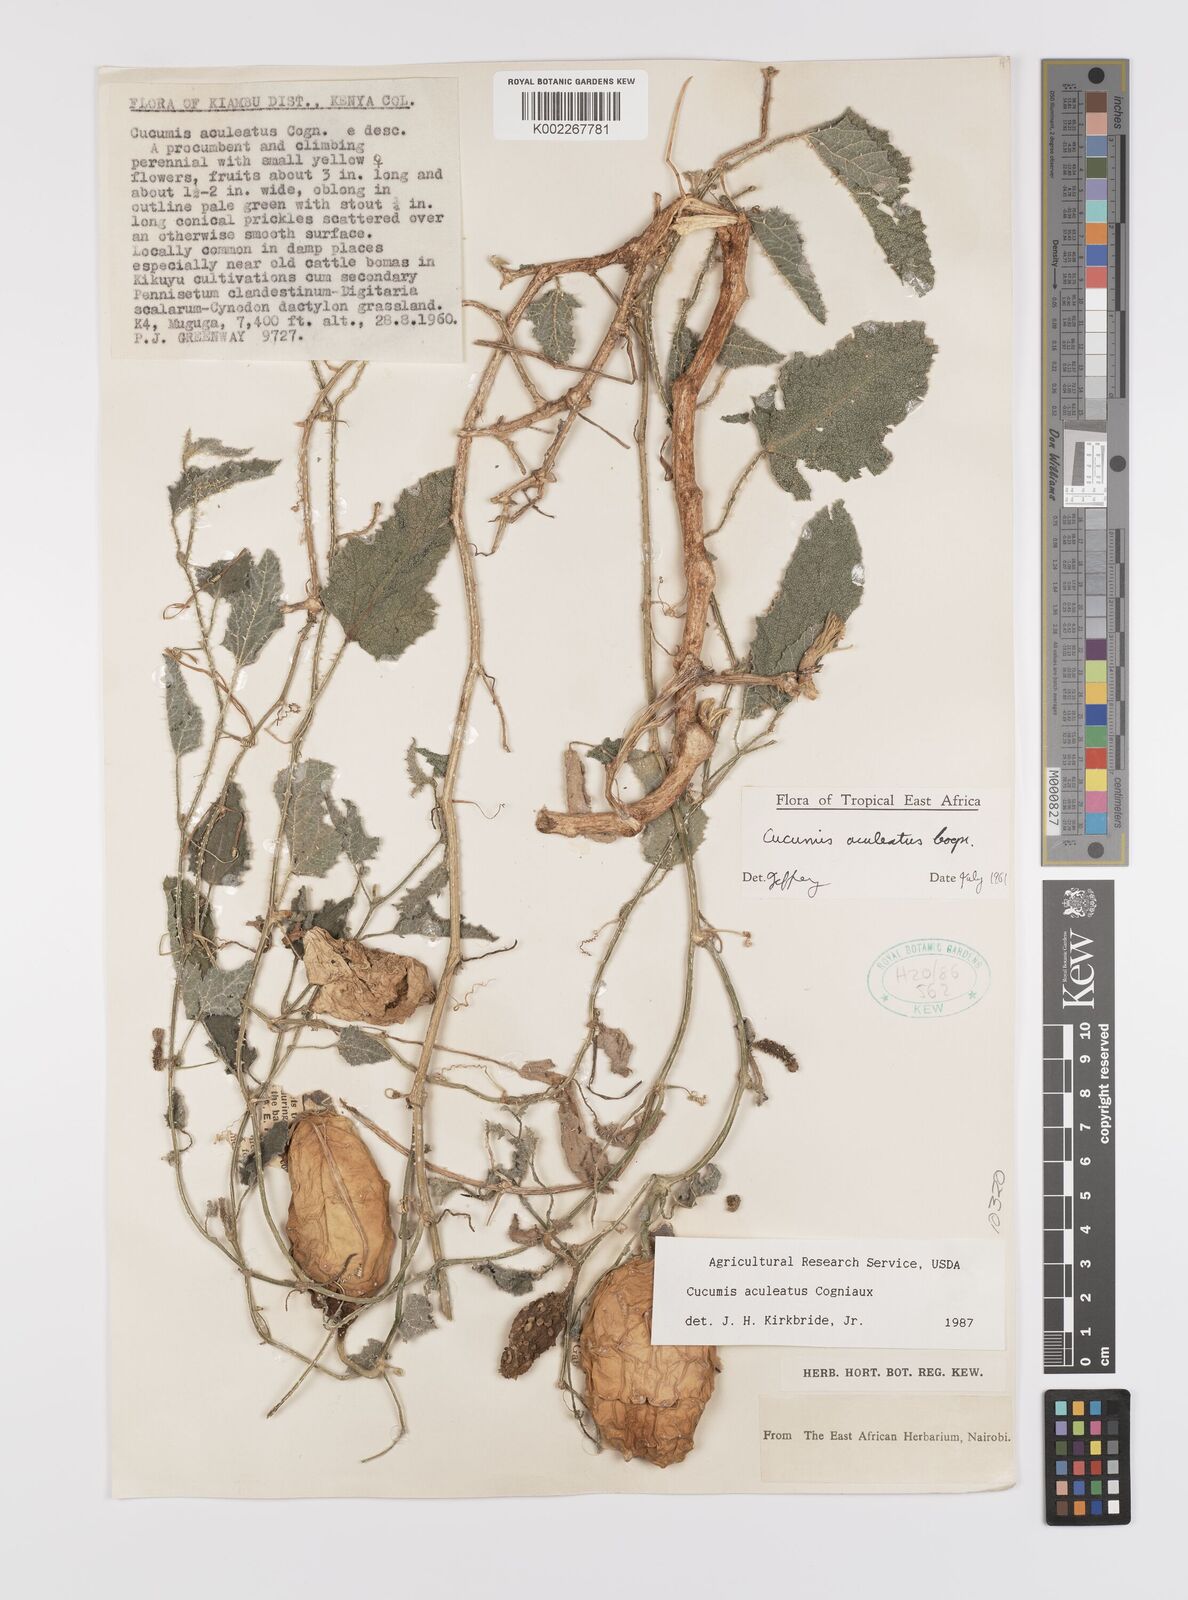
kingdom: Plantae
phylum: Tracheophyta
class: Magnoliopsida
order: Cucurbitales
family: Cucurbitaceae
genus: Cucumis
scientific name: Cucumis aculeatus
